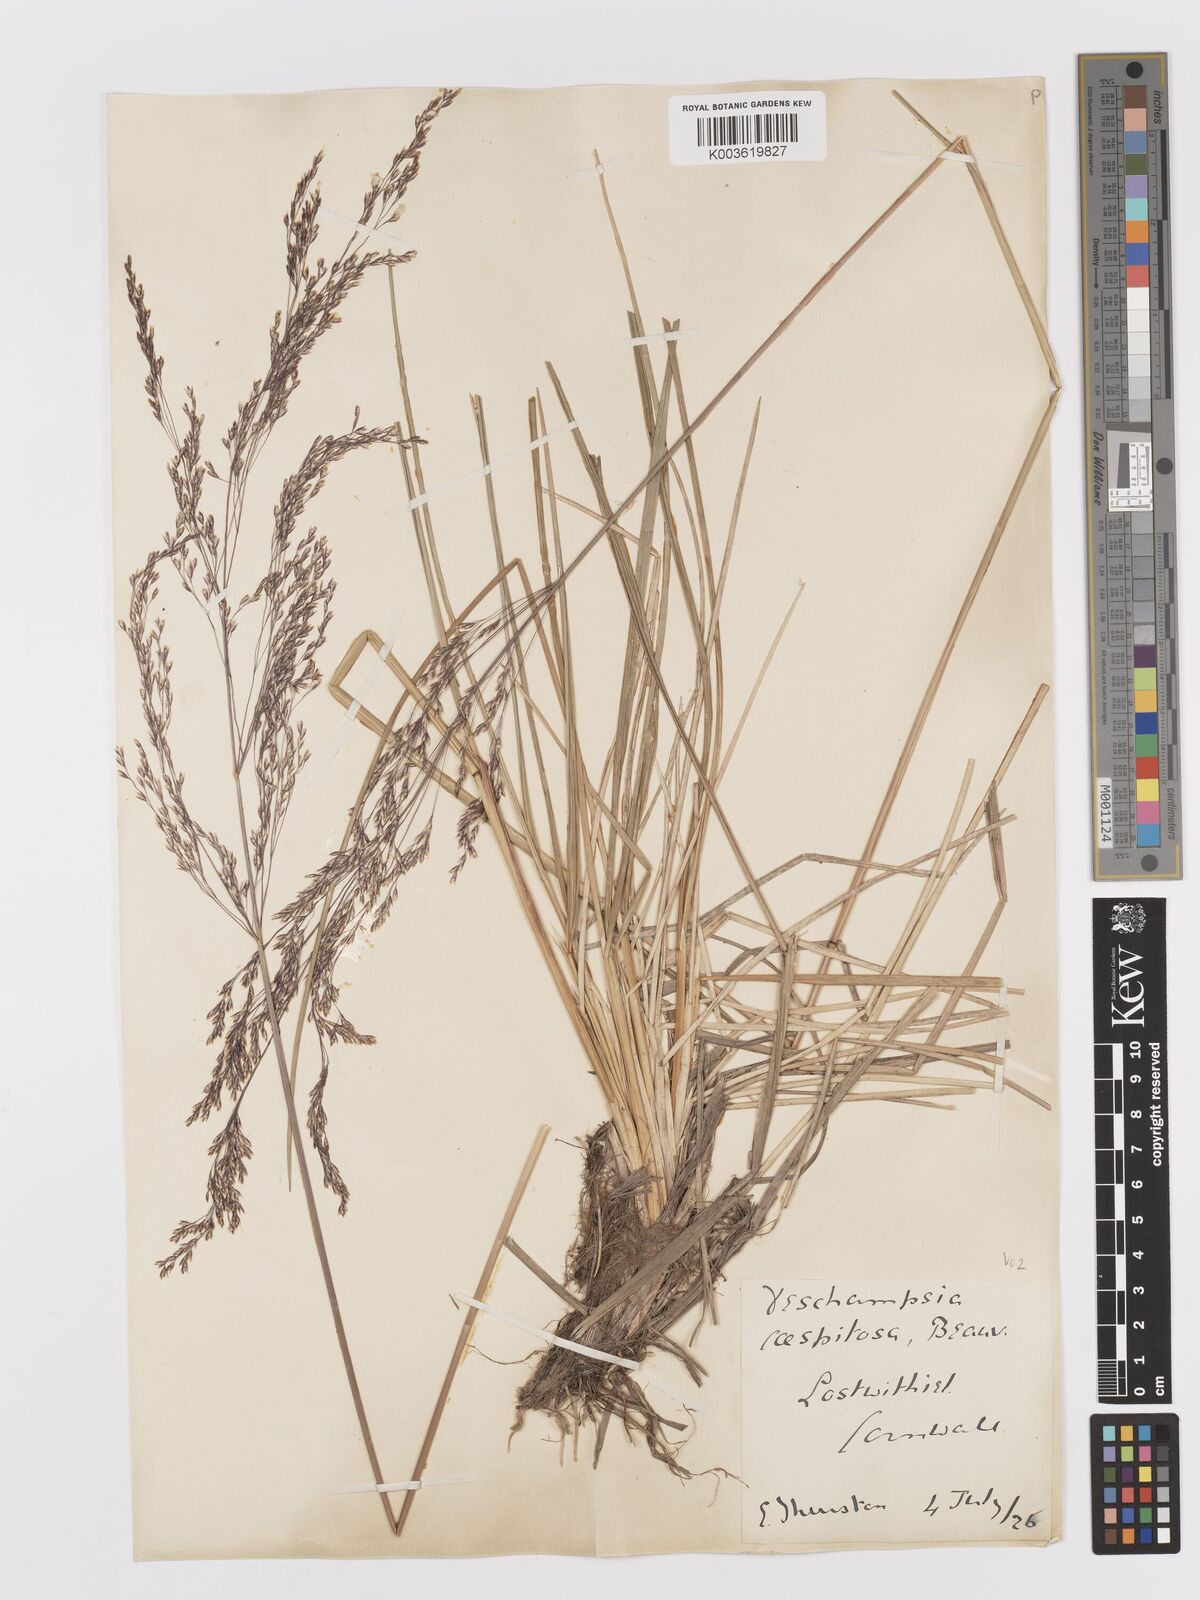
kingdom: Plantae
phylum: Tracheophyta
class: Liliopsida
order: Poales
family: Poaceae
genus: Deschampsia
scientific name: Deschampsia cespitosa
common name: Tufted hair-grass
